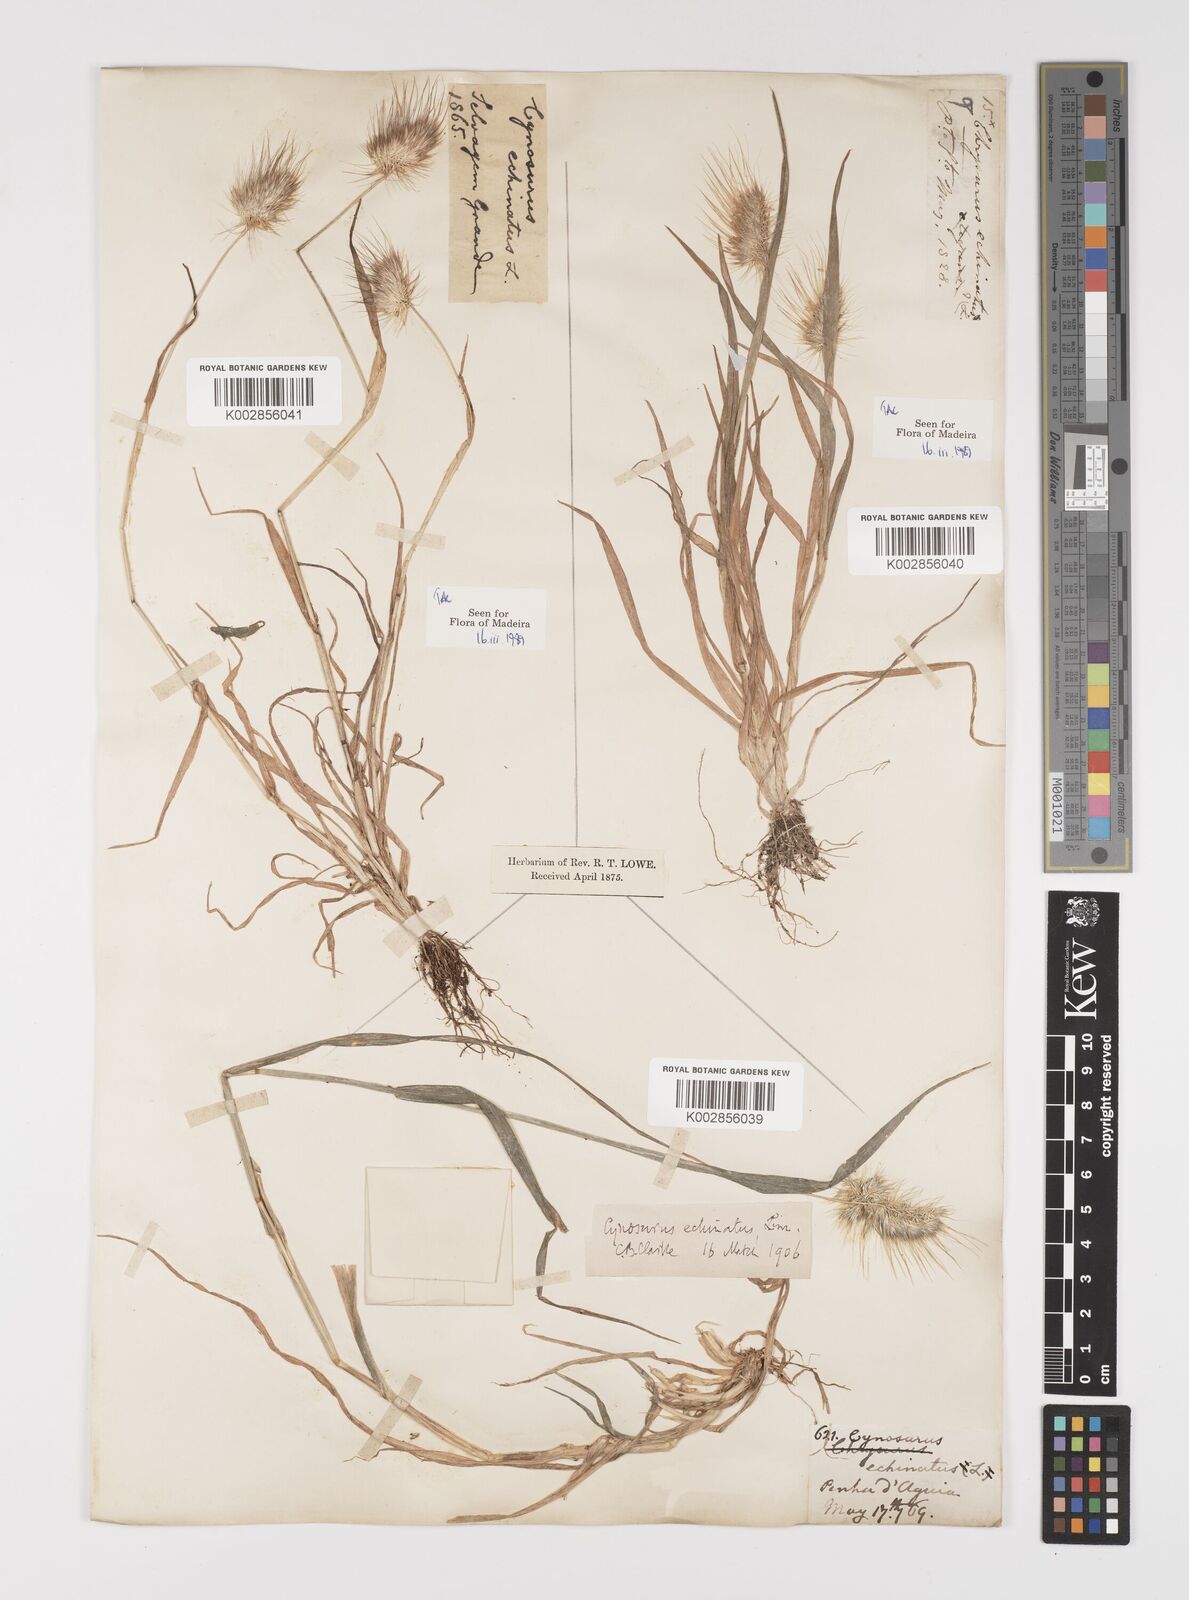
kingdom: Plantae
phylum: Tracheophyta
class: Liliopsida
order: Poales
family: Poaceae
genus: Cynosurus
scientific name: Cynosurus echinatus
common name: Rough dog's-tail
